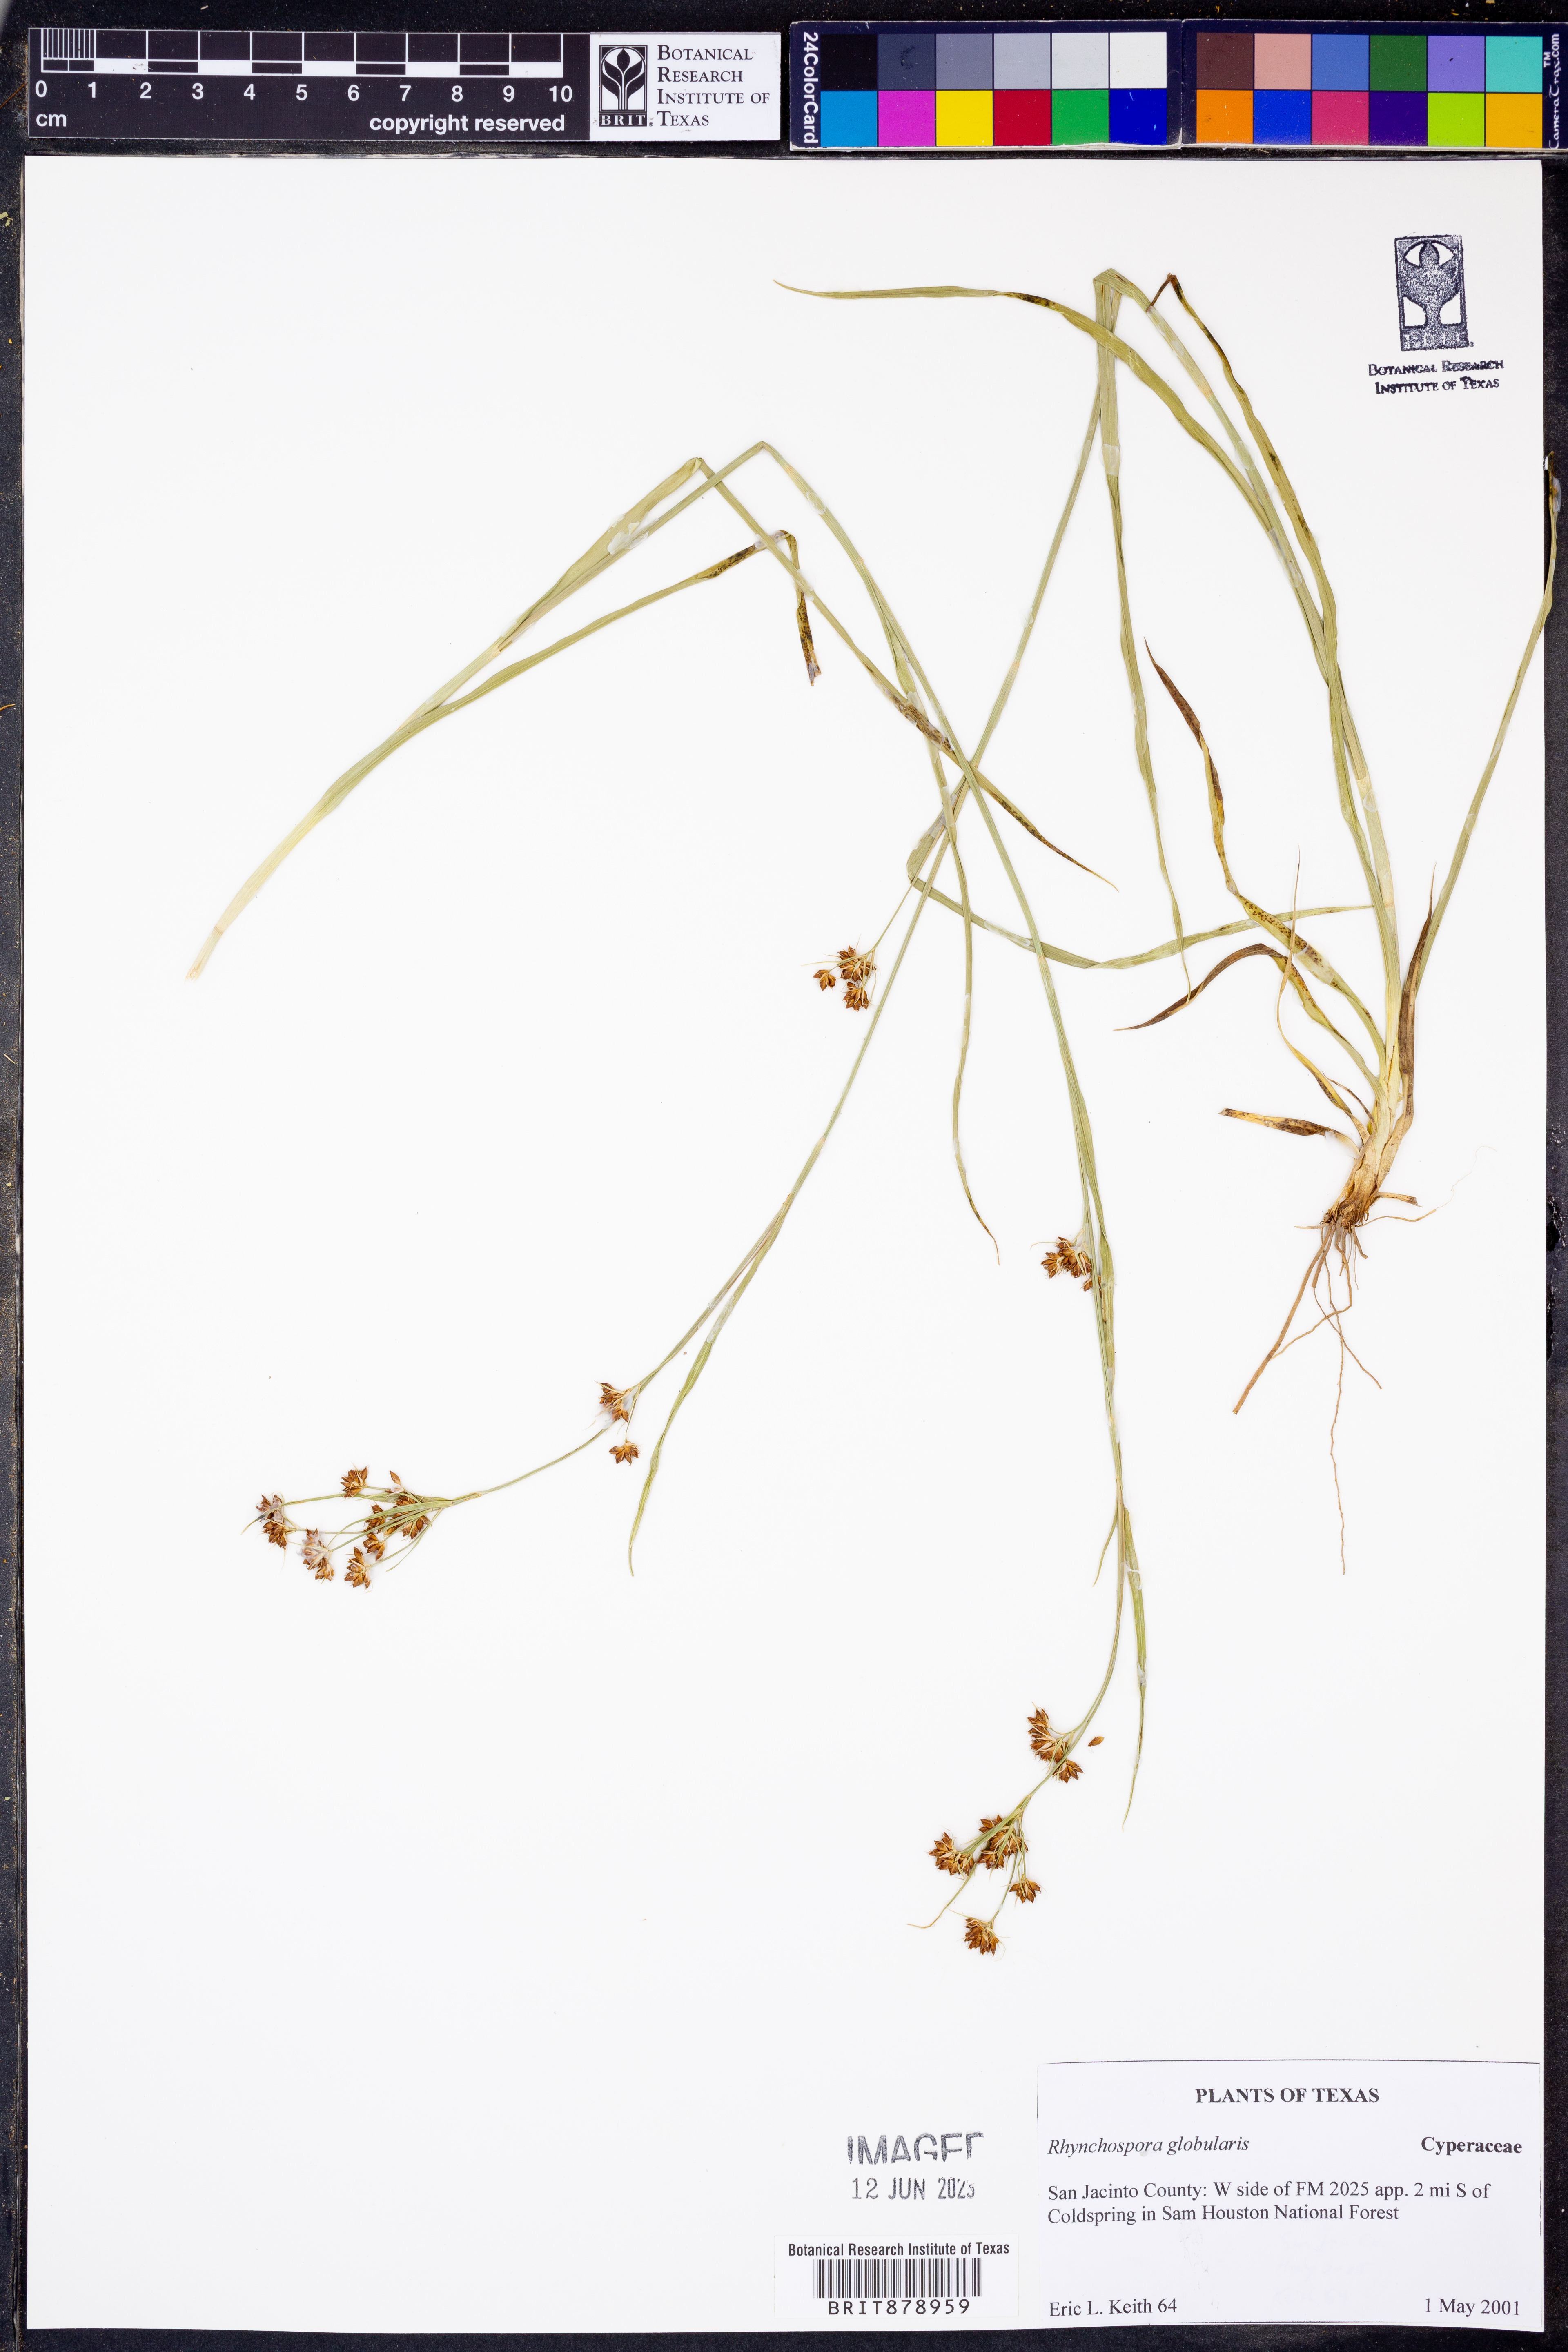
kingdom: Plantae
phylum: Tracheophyta
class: Liliopsida
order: Poales
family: Cyperaceae
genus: Rhynchospora
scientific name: Rhynchospora globularis
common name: Globe beaksedge
